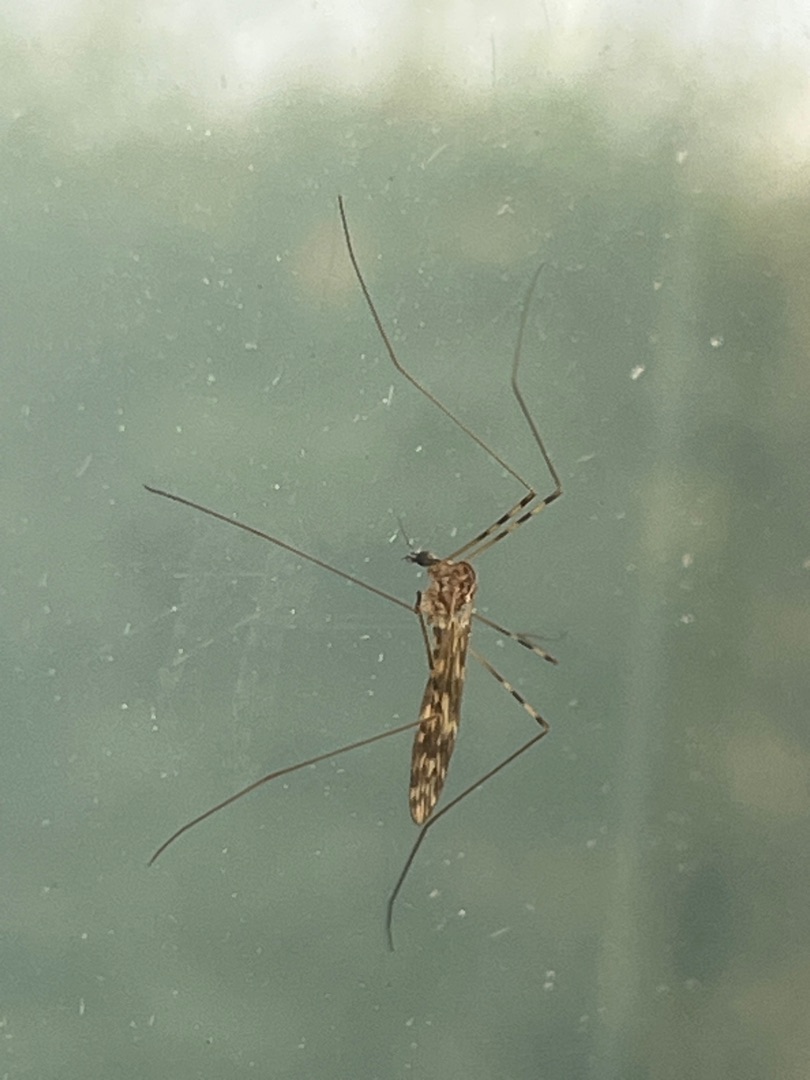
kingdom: Animalia
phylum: Arthropoda
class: Insecta
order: Diptera
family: Limoniidae
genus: Limonia
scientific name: Limonia nubeculosa
